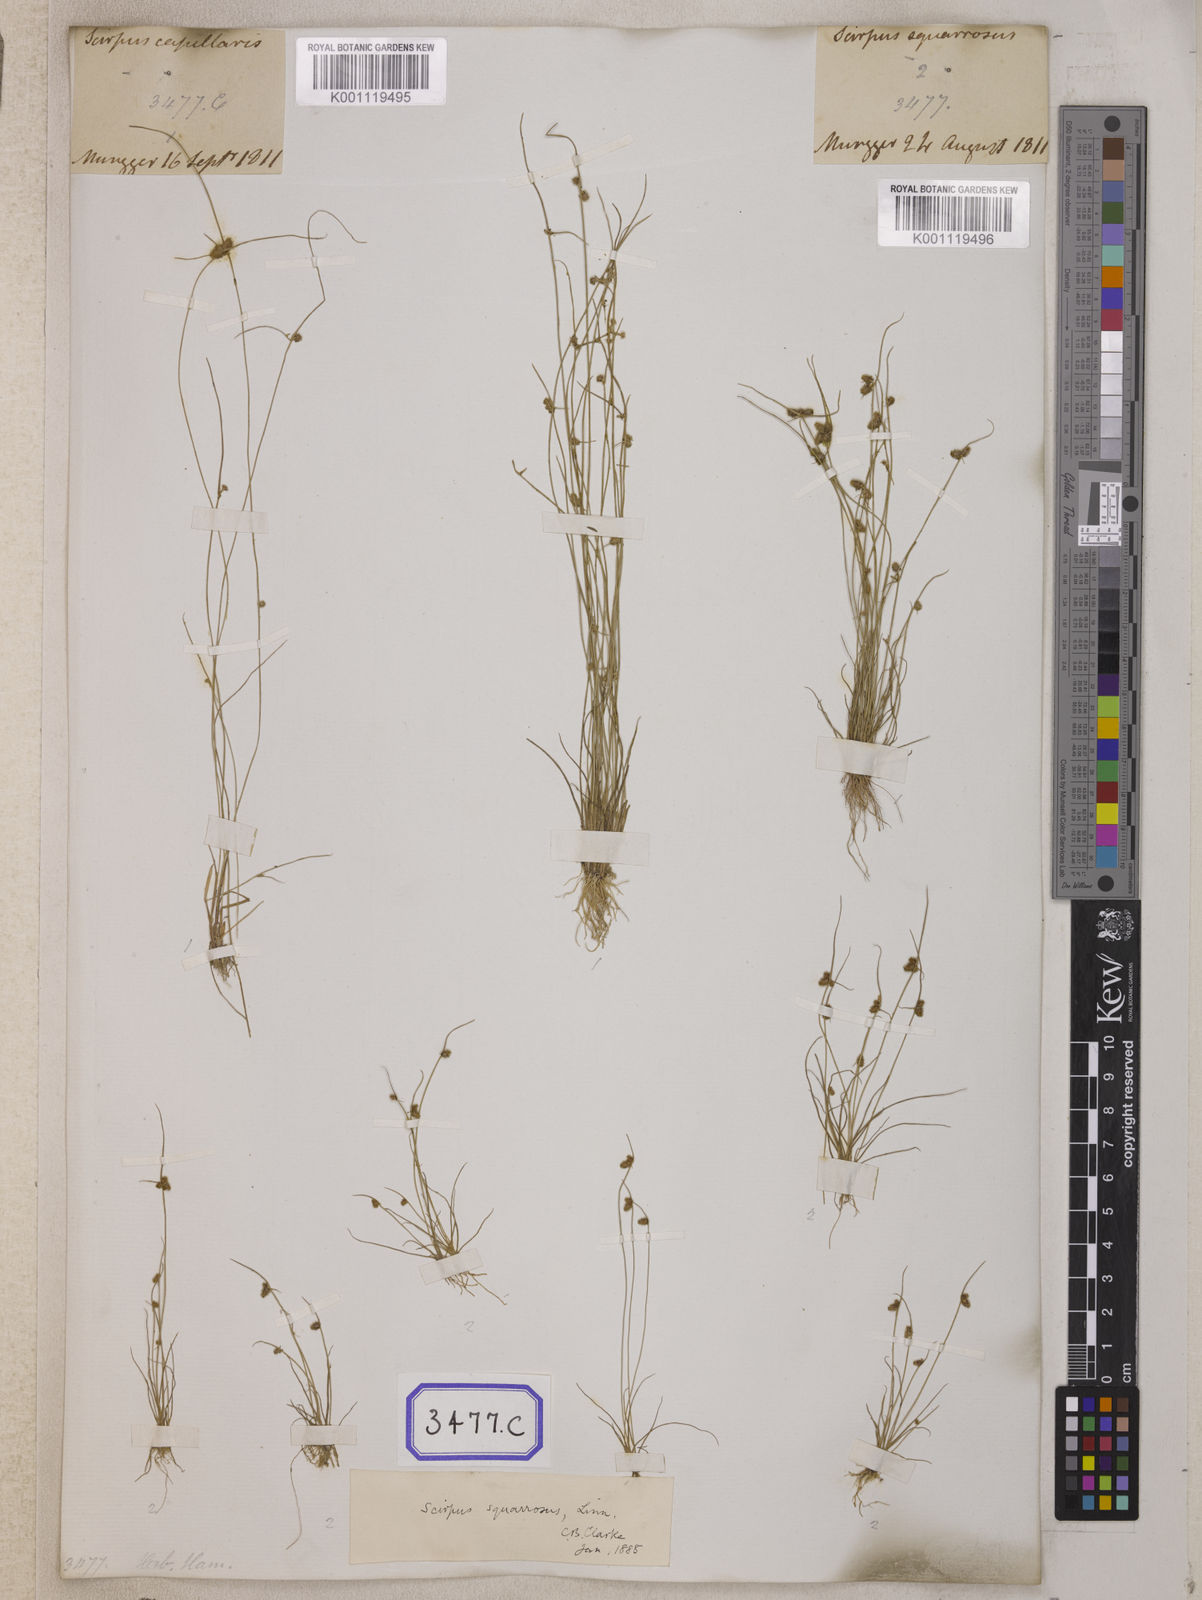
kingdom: Plantae
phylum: Tracheophyta
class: Liliopsida
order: Poales
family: Cyperaceae
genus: Isolepis
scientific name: Isolepis
